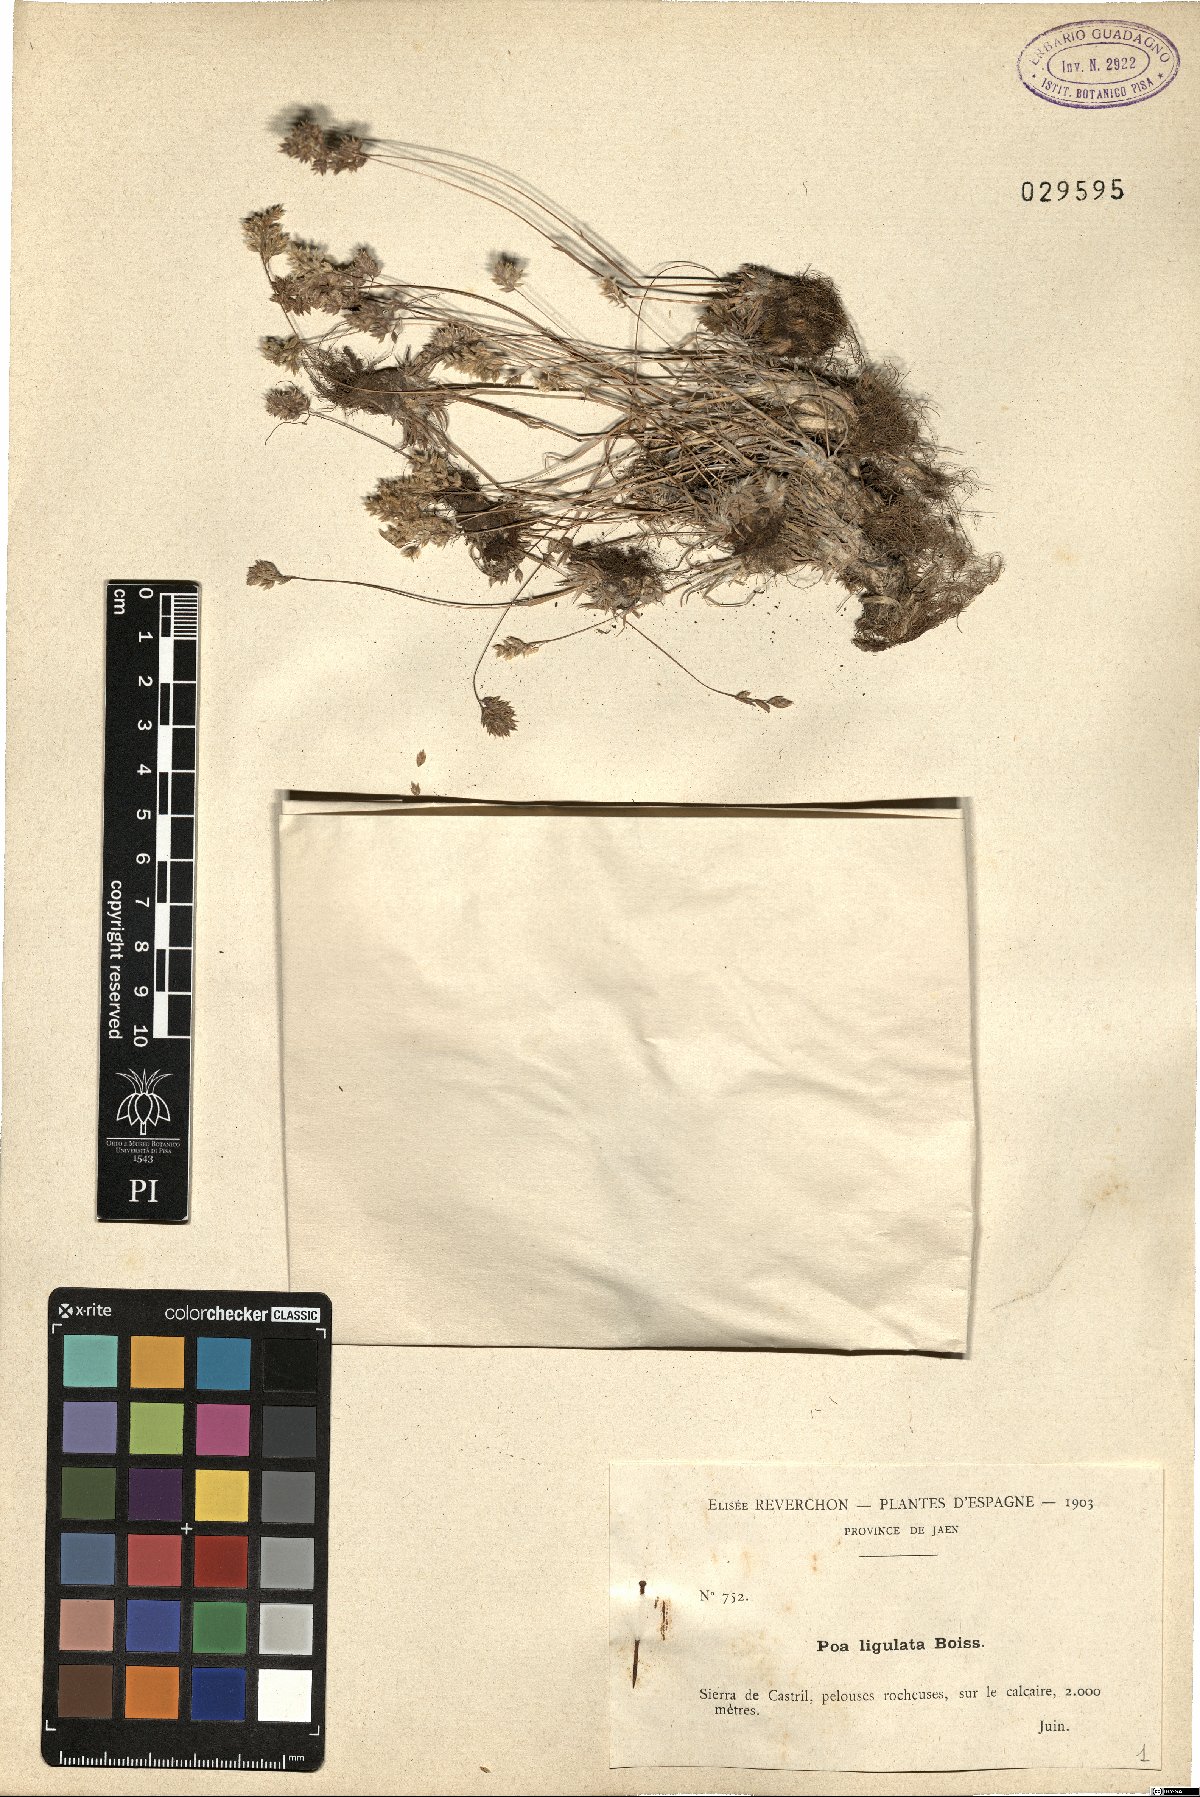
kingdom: Plantae
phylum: Tracheophyta
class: Liliopsida
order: Poales
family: Poaceae
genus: Poa
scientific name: Poa ligulata
